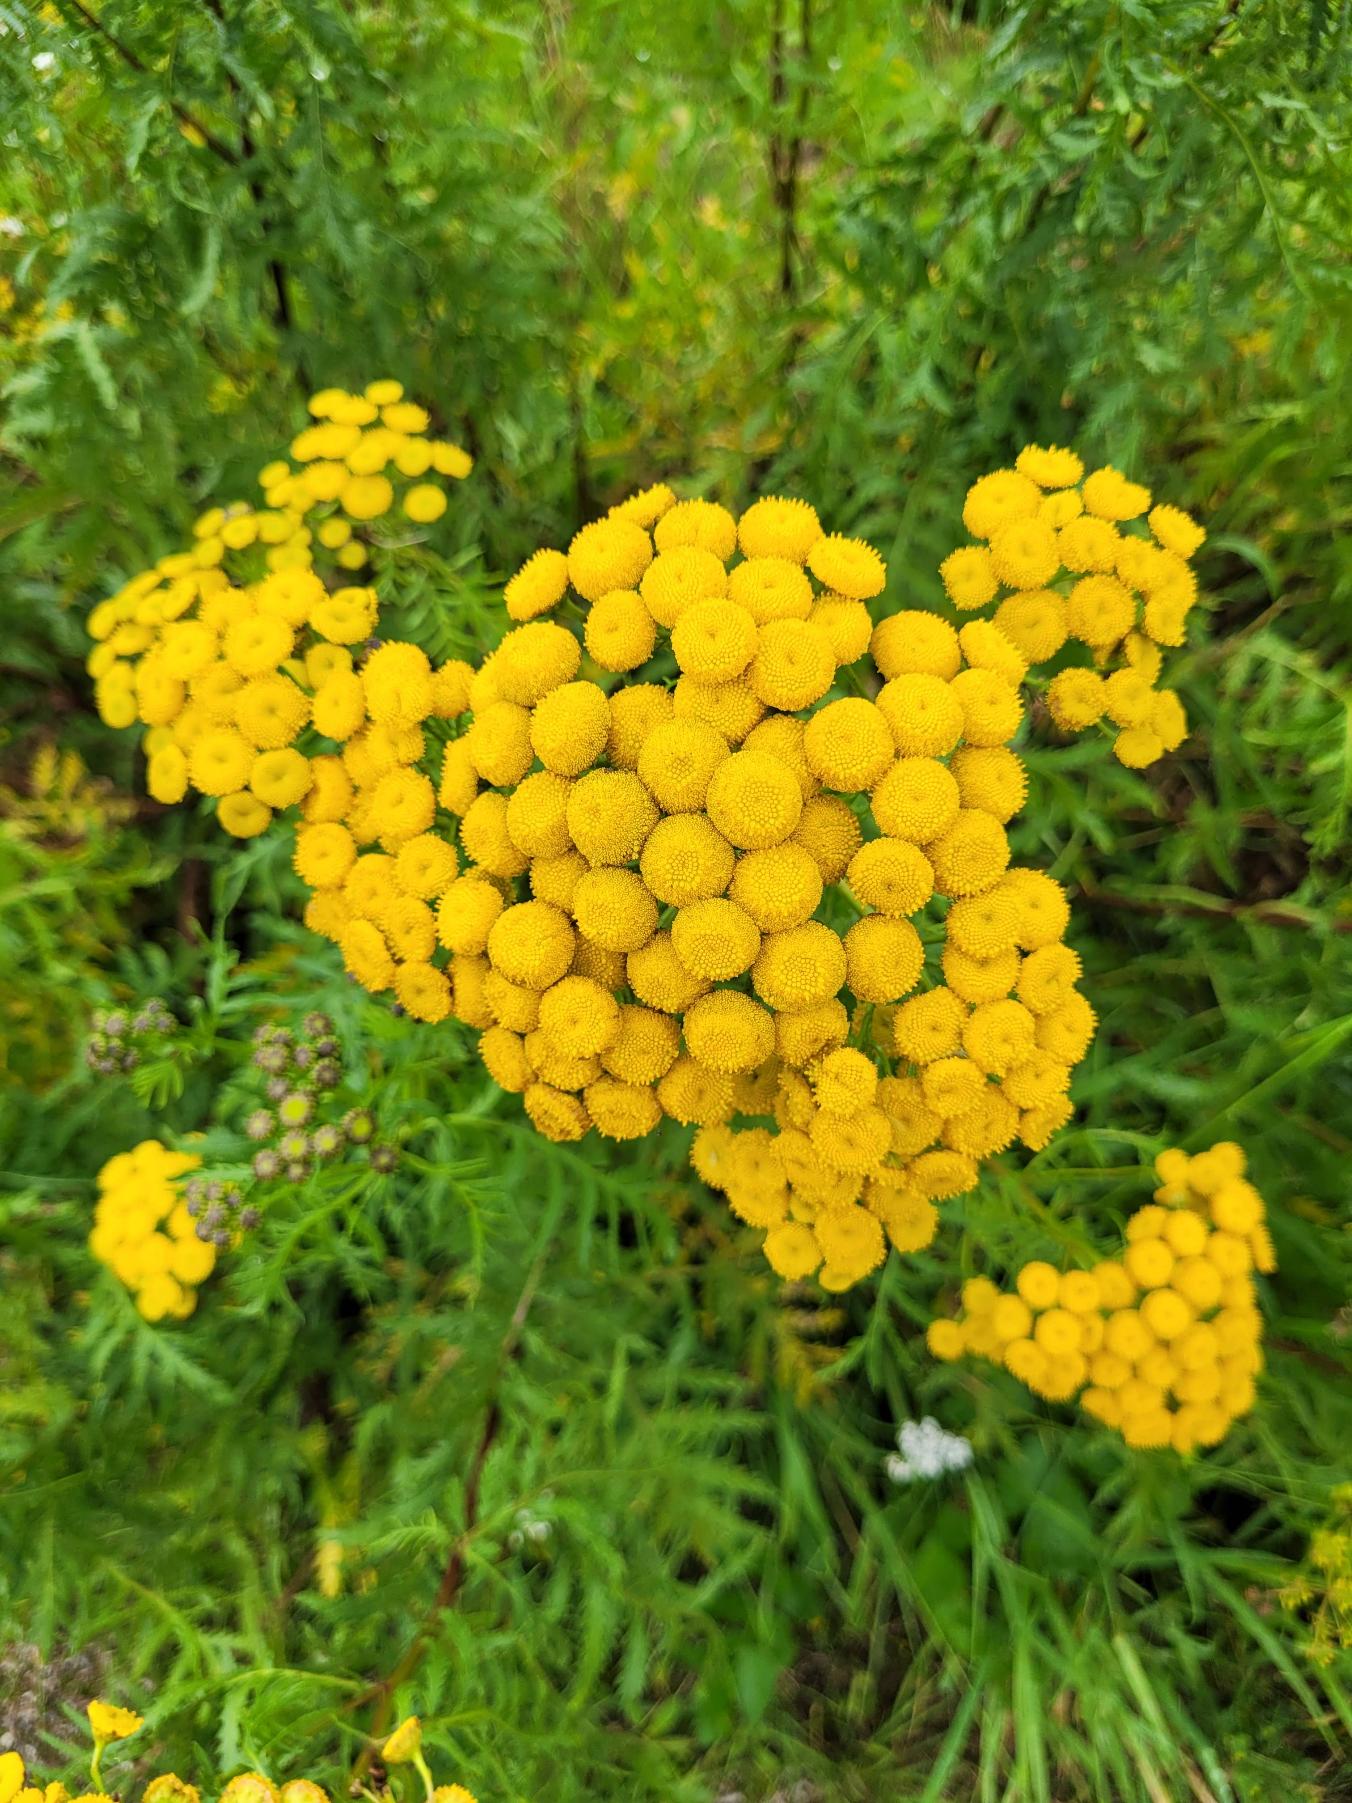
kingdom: Plantae
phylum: Tracheophyta
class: Magnoliopsida
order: Asterales
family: Asteraceae
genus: Tanacetum
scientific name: Tanacetum vulgare
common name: Rejnfan
